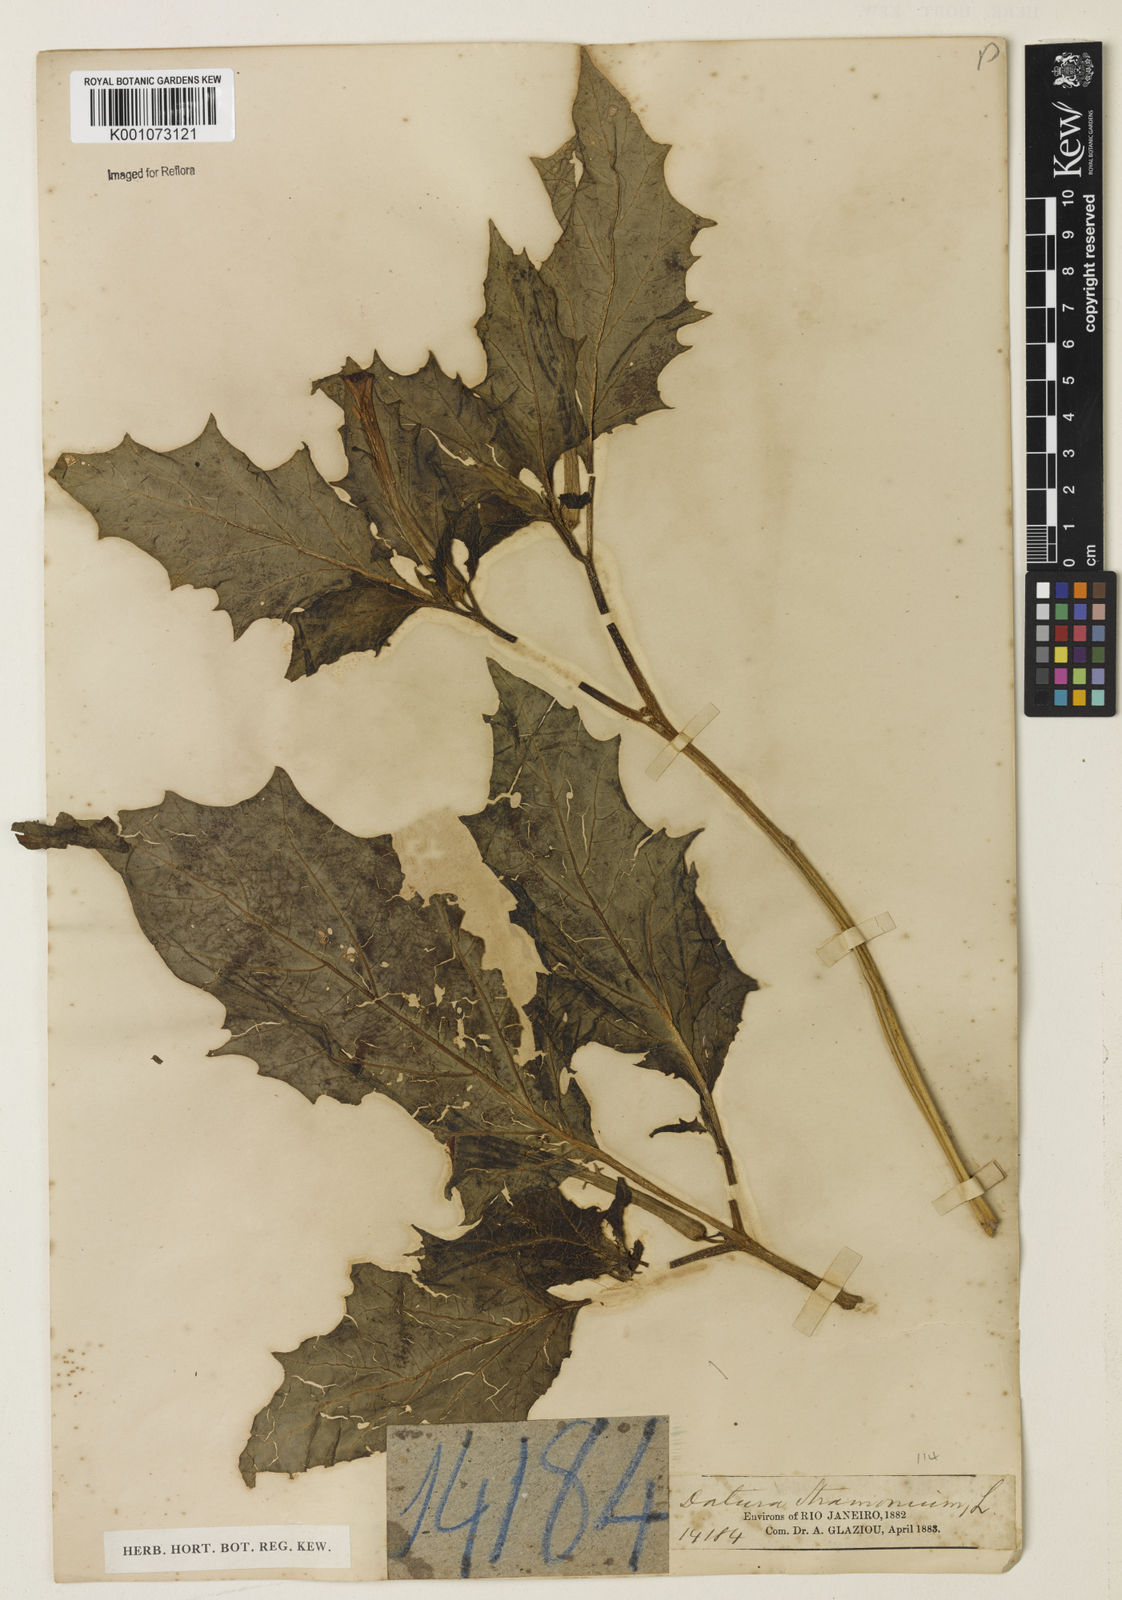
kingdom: Plantae
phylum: Tracheophyta
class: Magnoliopsida
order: Solanales
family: Solanaceae
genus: Datura
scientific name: Datura stramonium
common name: Thorn-apple
